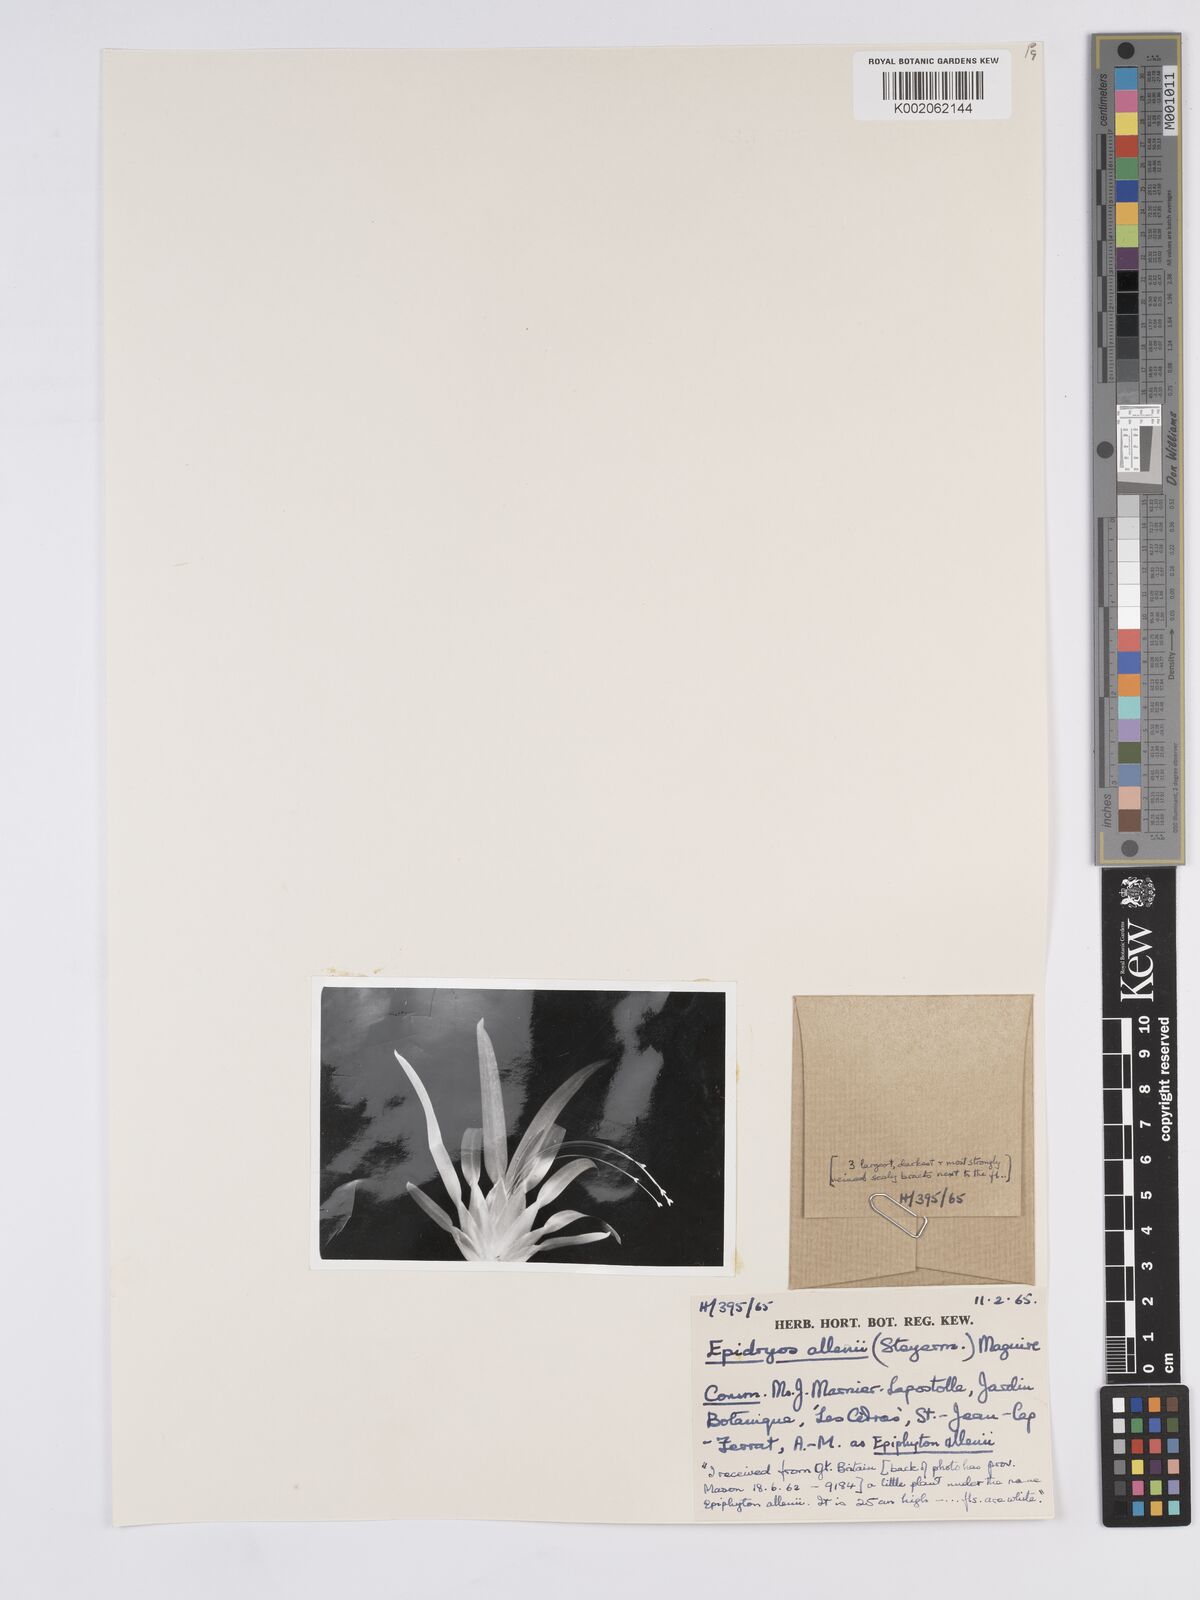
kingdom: Plantae
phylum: Tracheophyta
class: Liliopsida
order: Poales
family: Rapateaceae
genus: Epidryos
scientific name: Epidryos allenii
